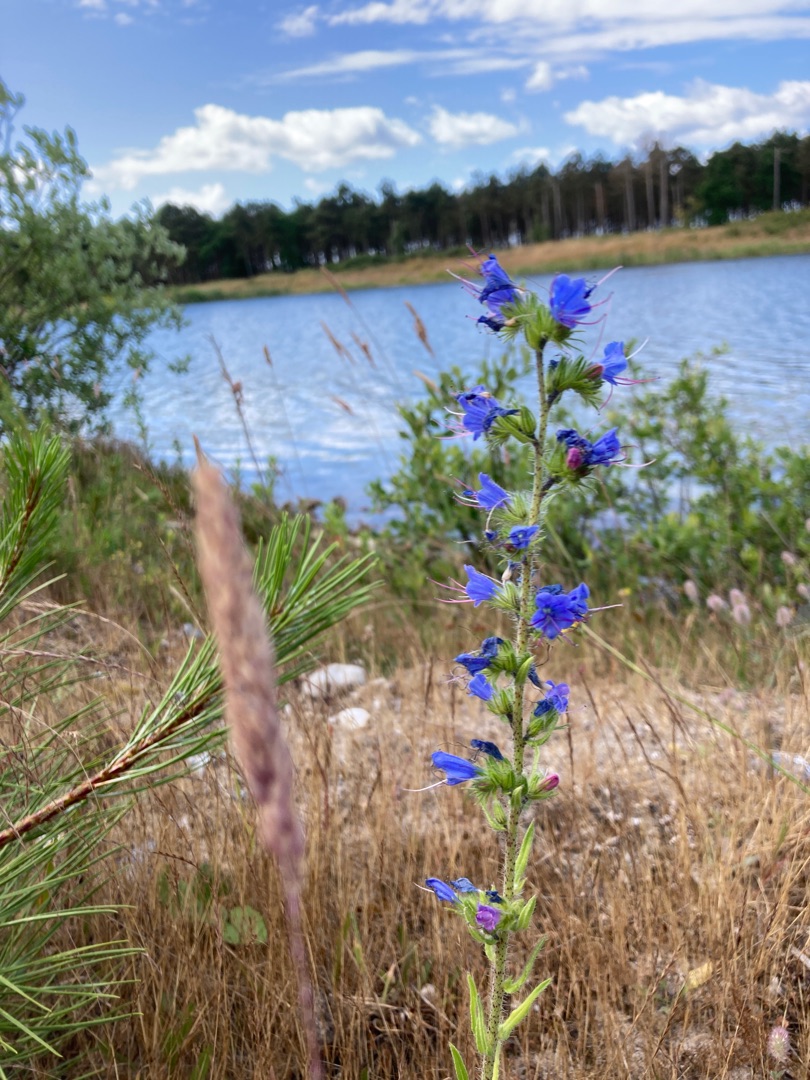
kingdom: Plantae
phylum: Tracheophyta
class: Magnoliopsida
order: Boraginales
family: Boraginaceae
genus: Echium
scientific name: Echium vulgare
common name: Slangehoved
